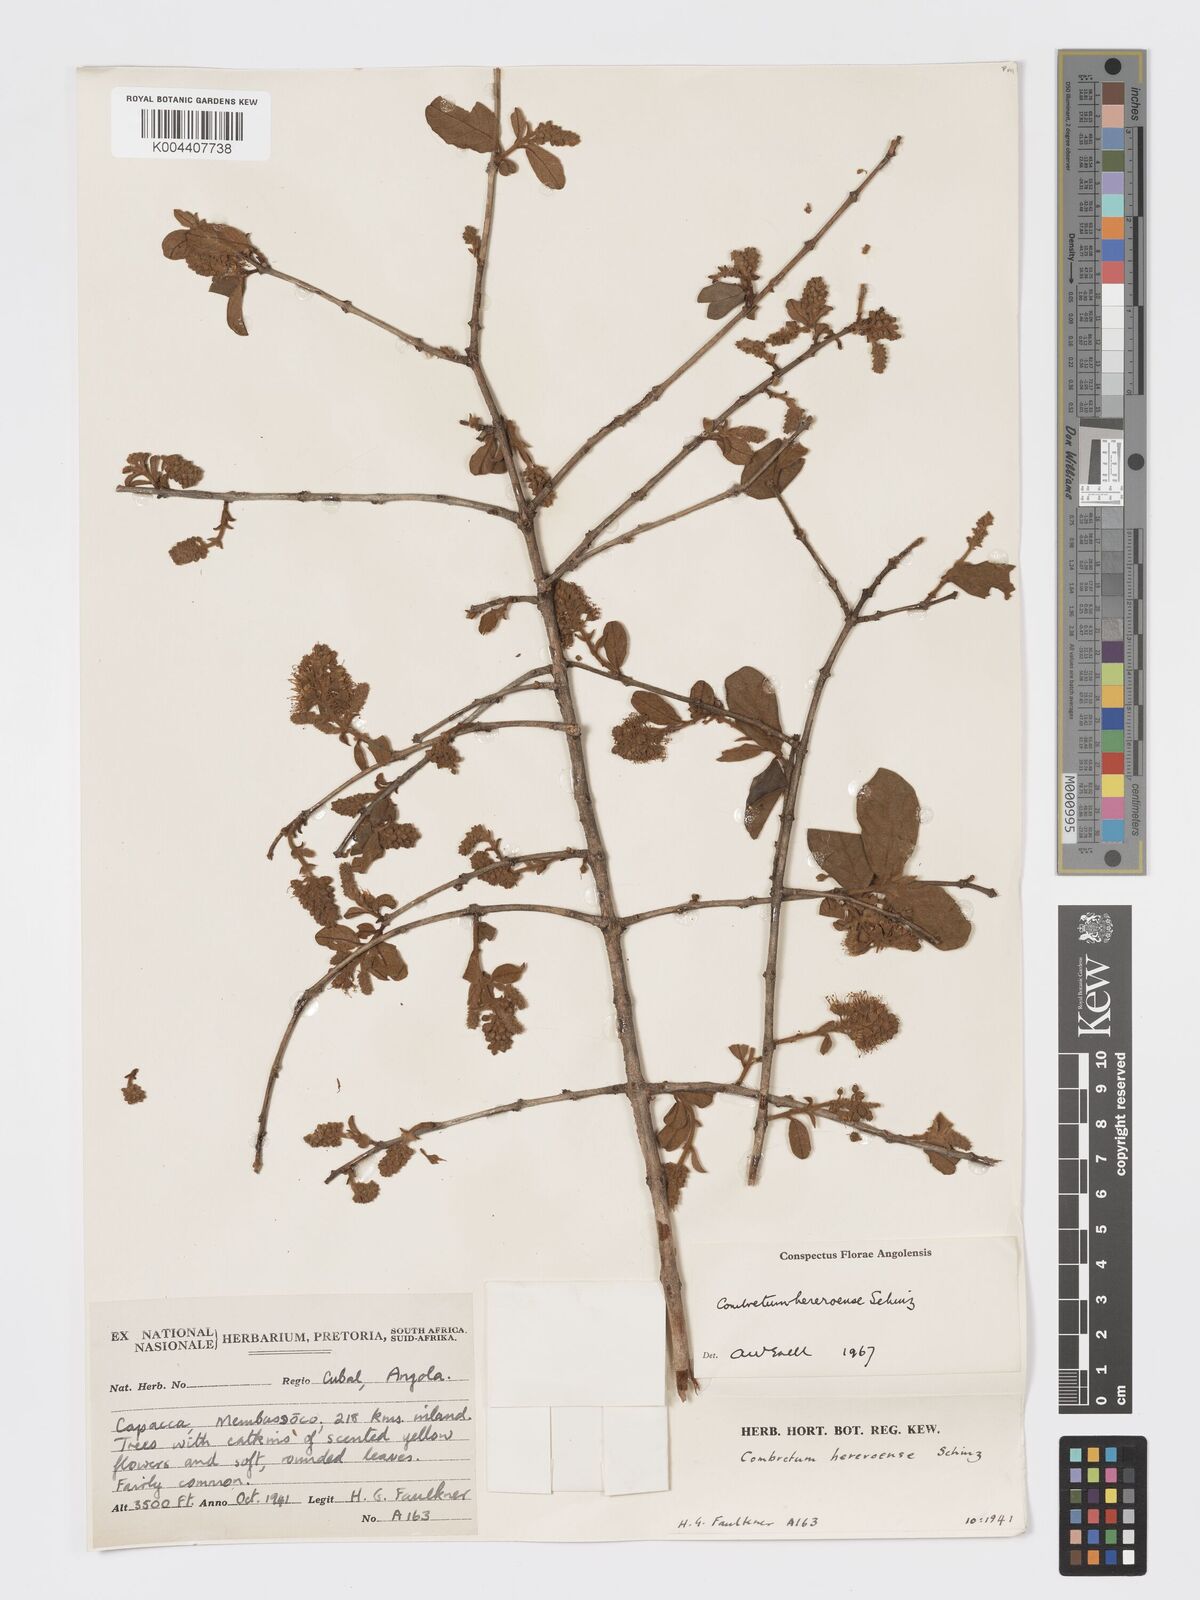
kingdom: Plantae
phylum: Tracheophyta
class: Magnoliopsida
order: Myrtales
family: Combretaceae
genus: Combretum
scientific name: Combretum hereroense
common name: Russet bushwillow
